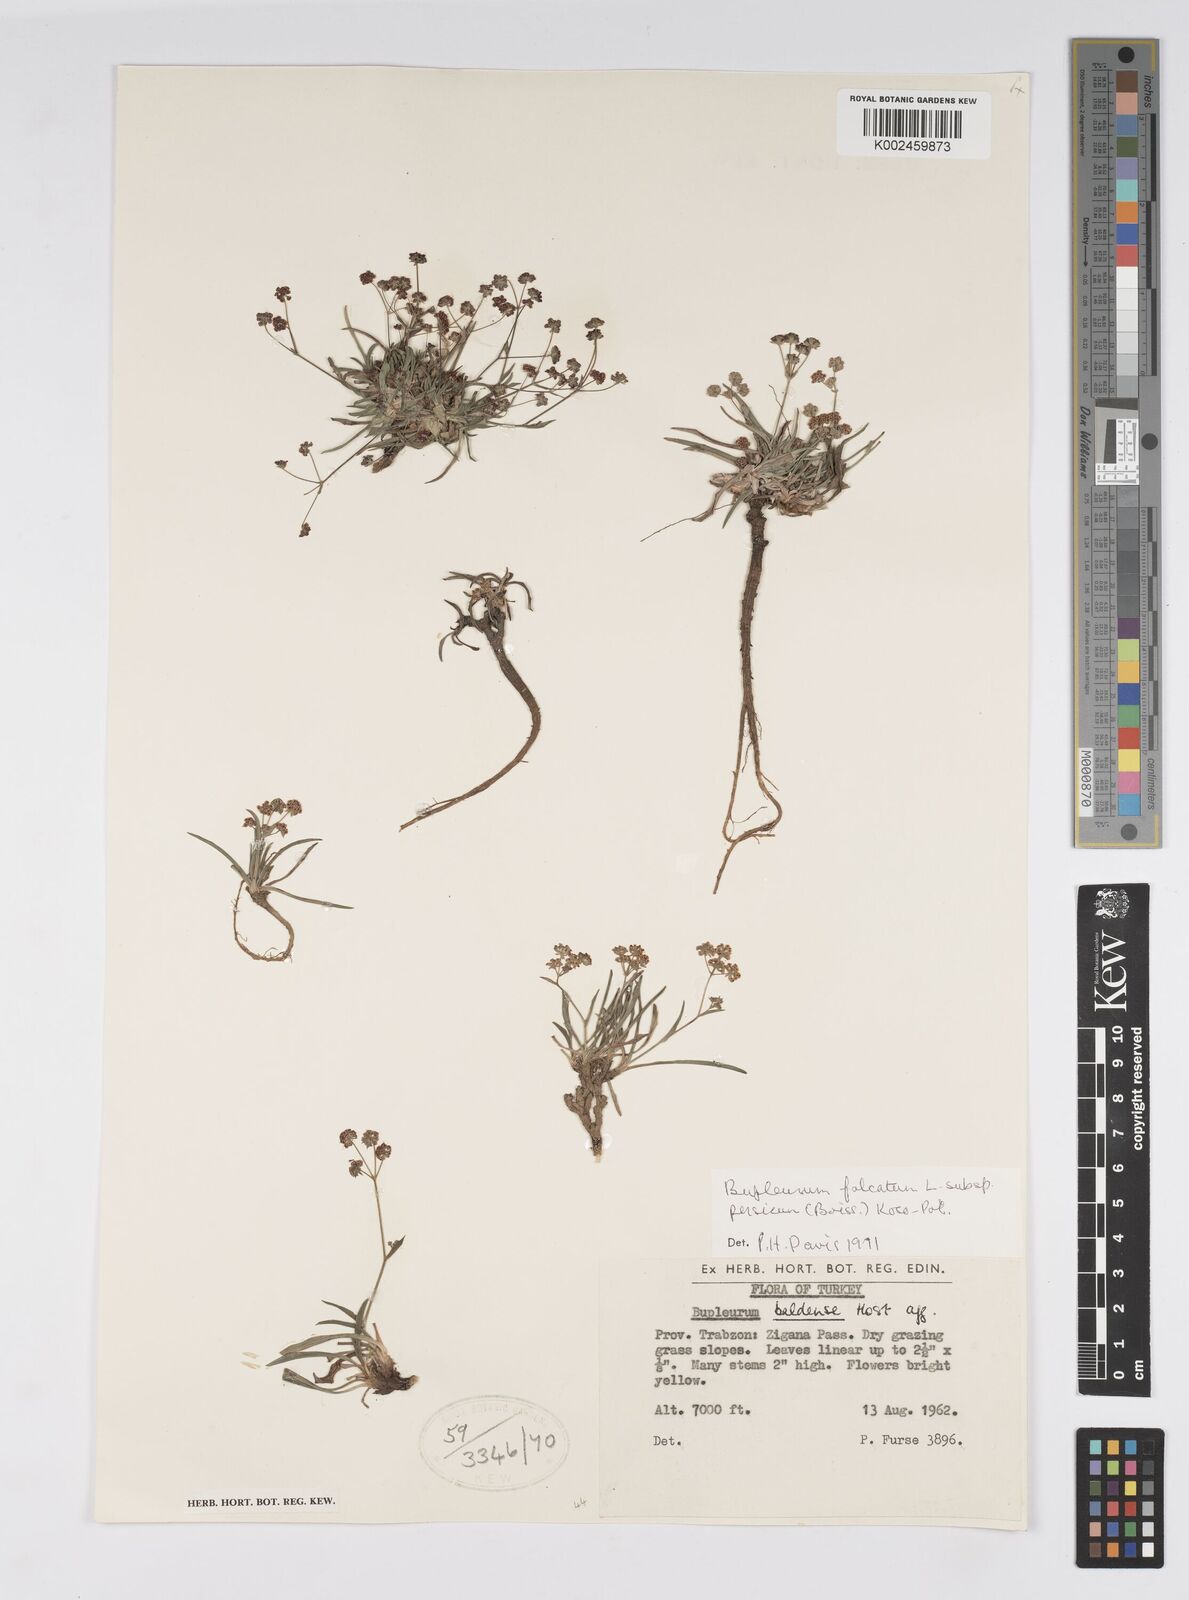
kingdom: Plantae
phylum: Tracheophyta
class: Magnoliopsida
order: Apiales
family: Apiaceae
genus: Bupleurum
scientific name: Bupleurum falcatum
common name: Sickle-leaved hare's-ear
